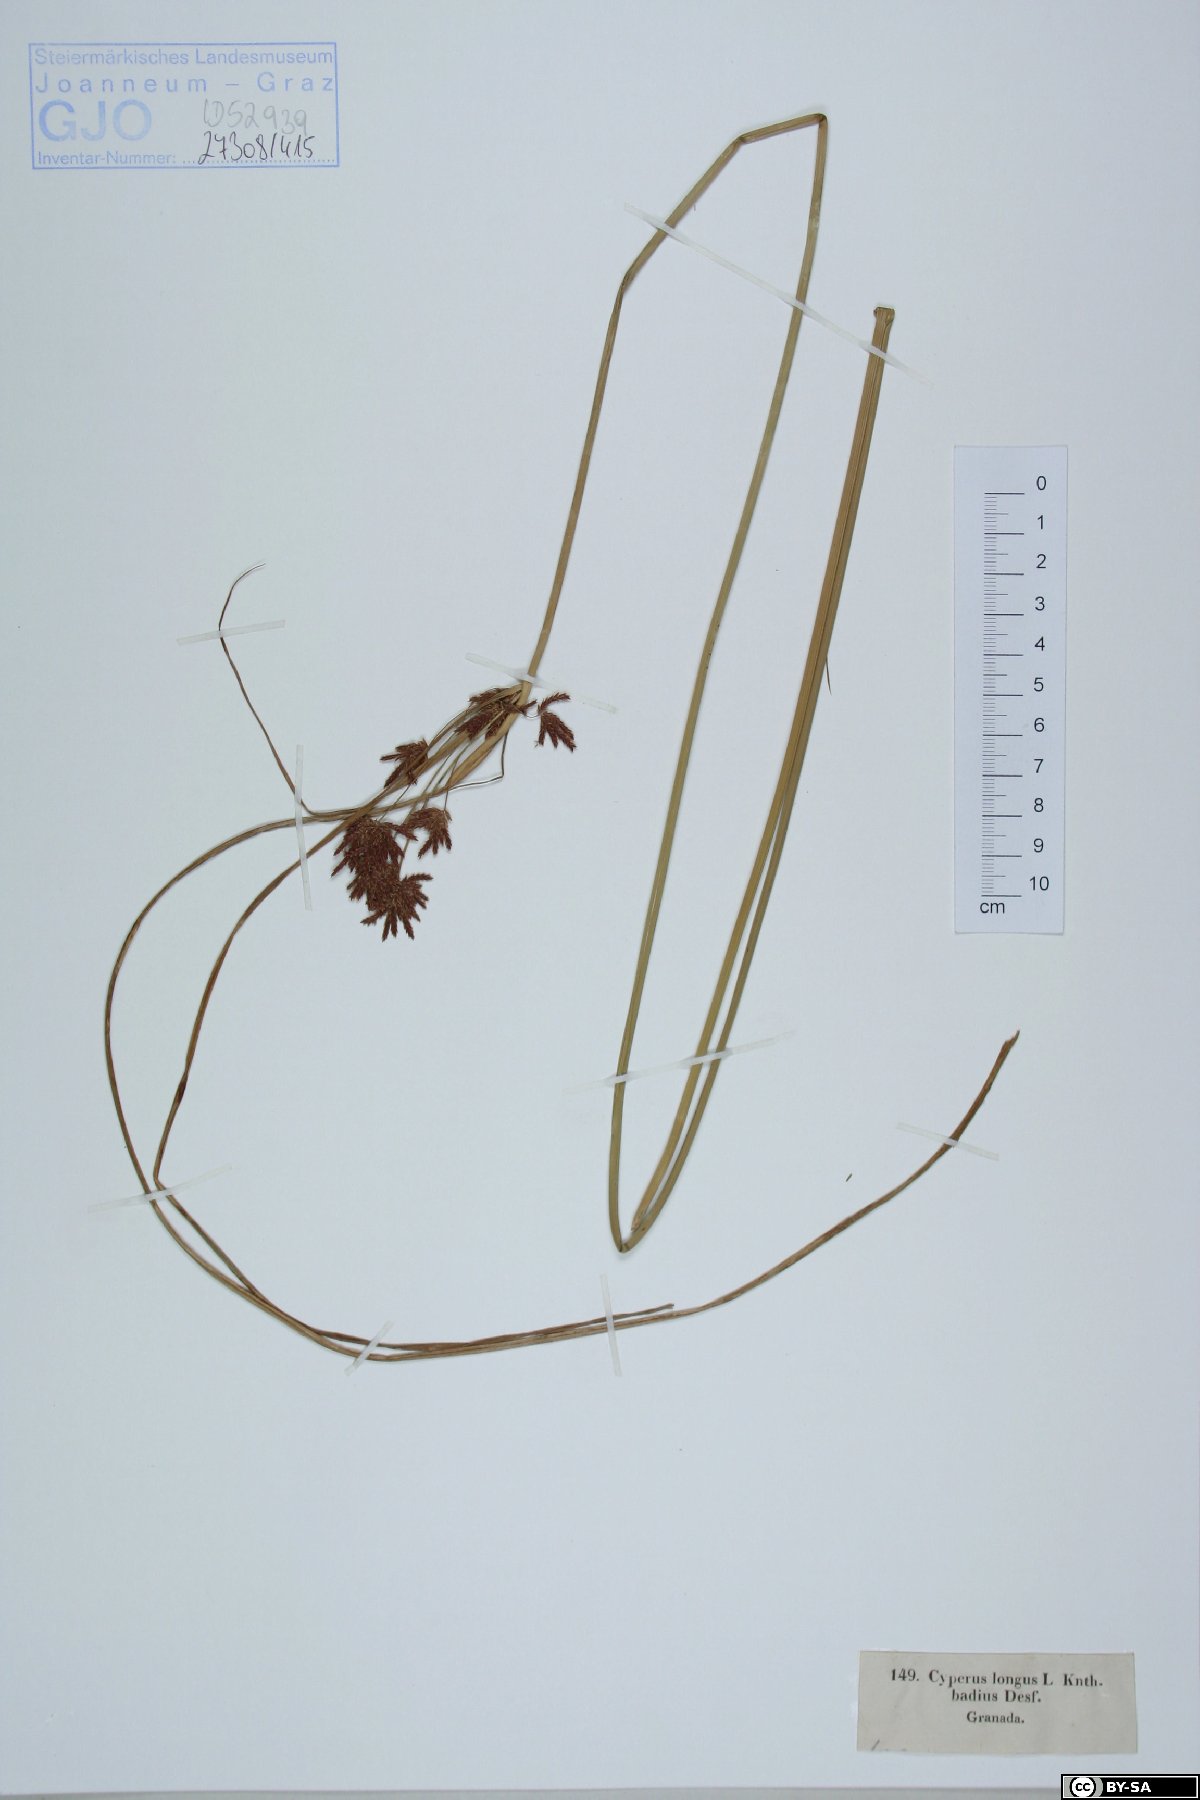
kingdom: Plantae
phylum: Tracheophyta
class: Liliopsida
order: Poales
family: Cyperaceae
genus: Cyperus
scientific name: Cyperus longus
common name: Galingale
